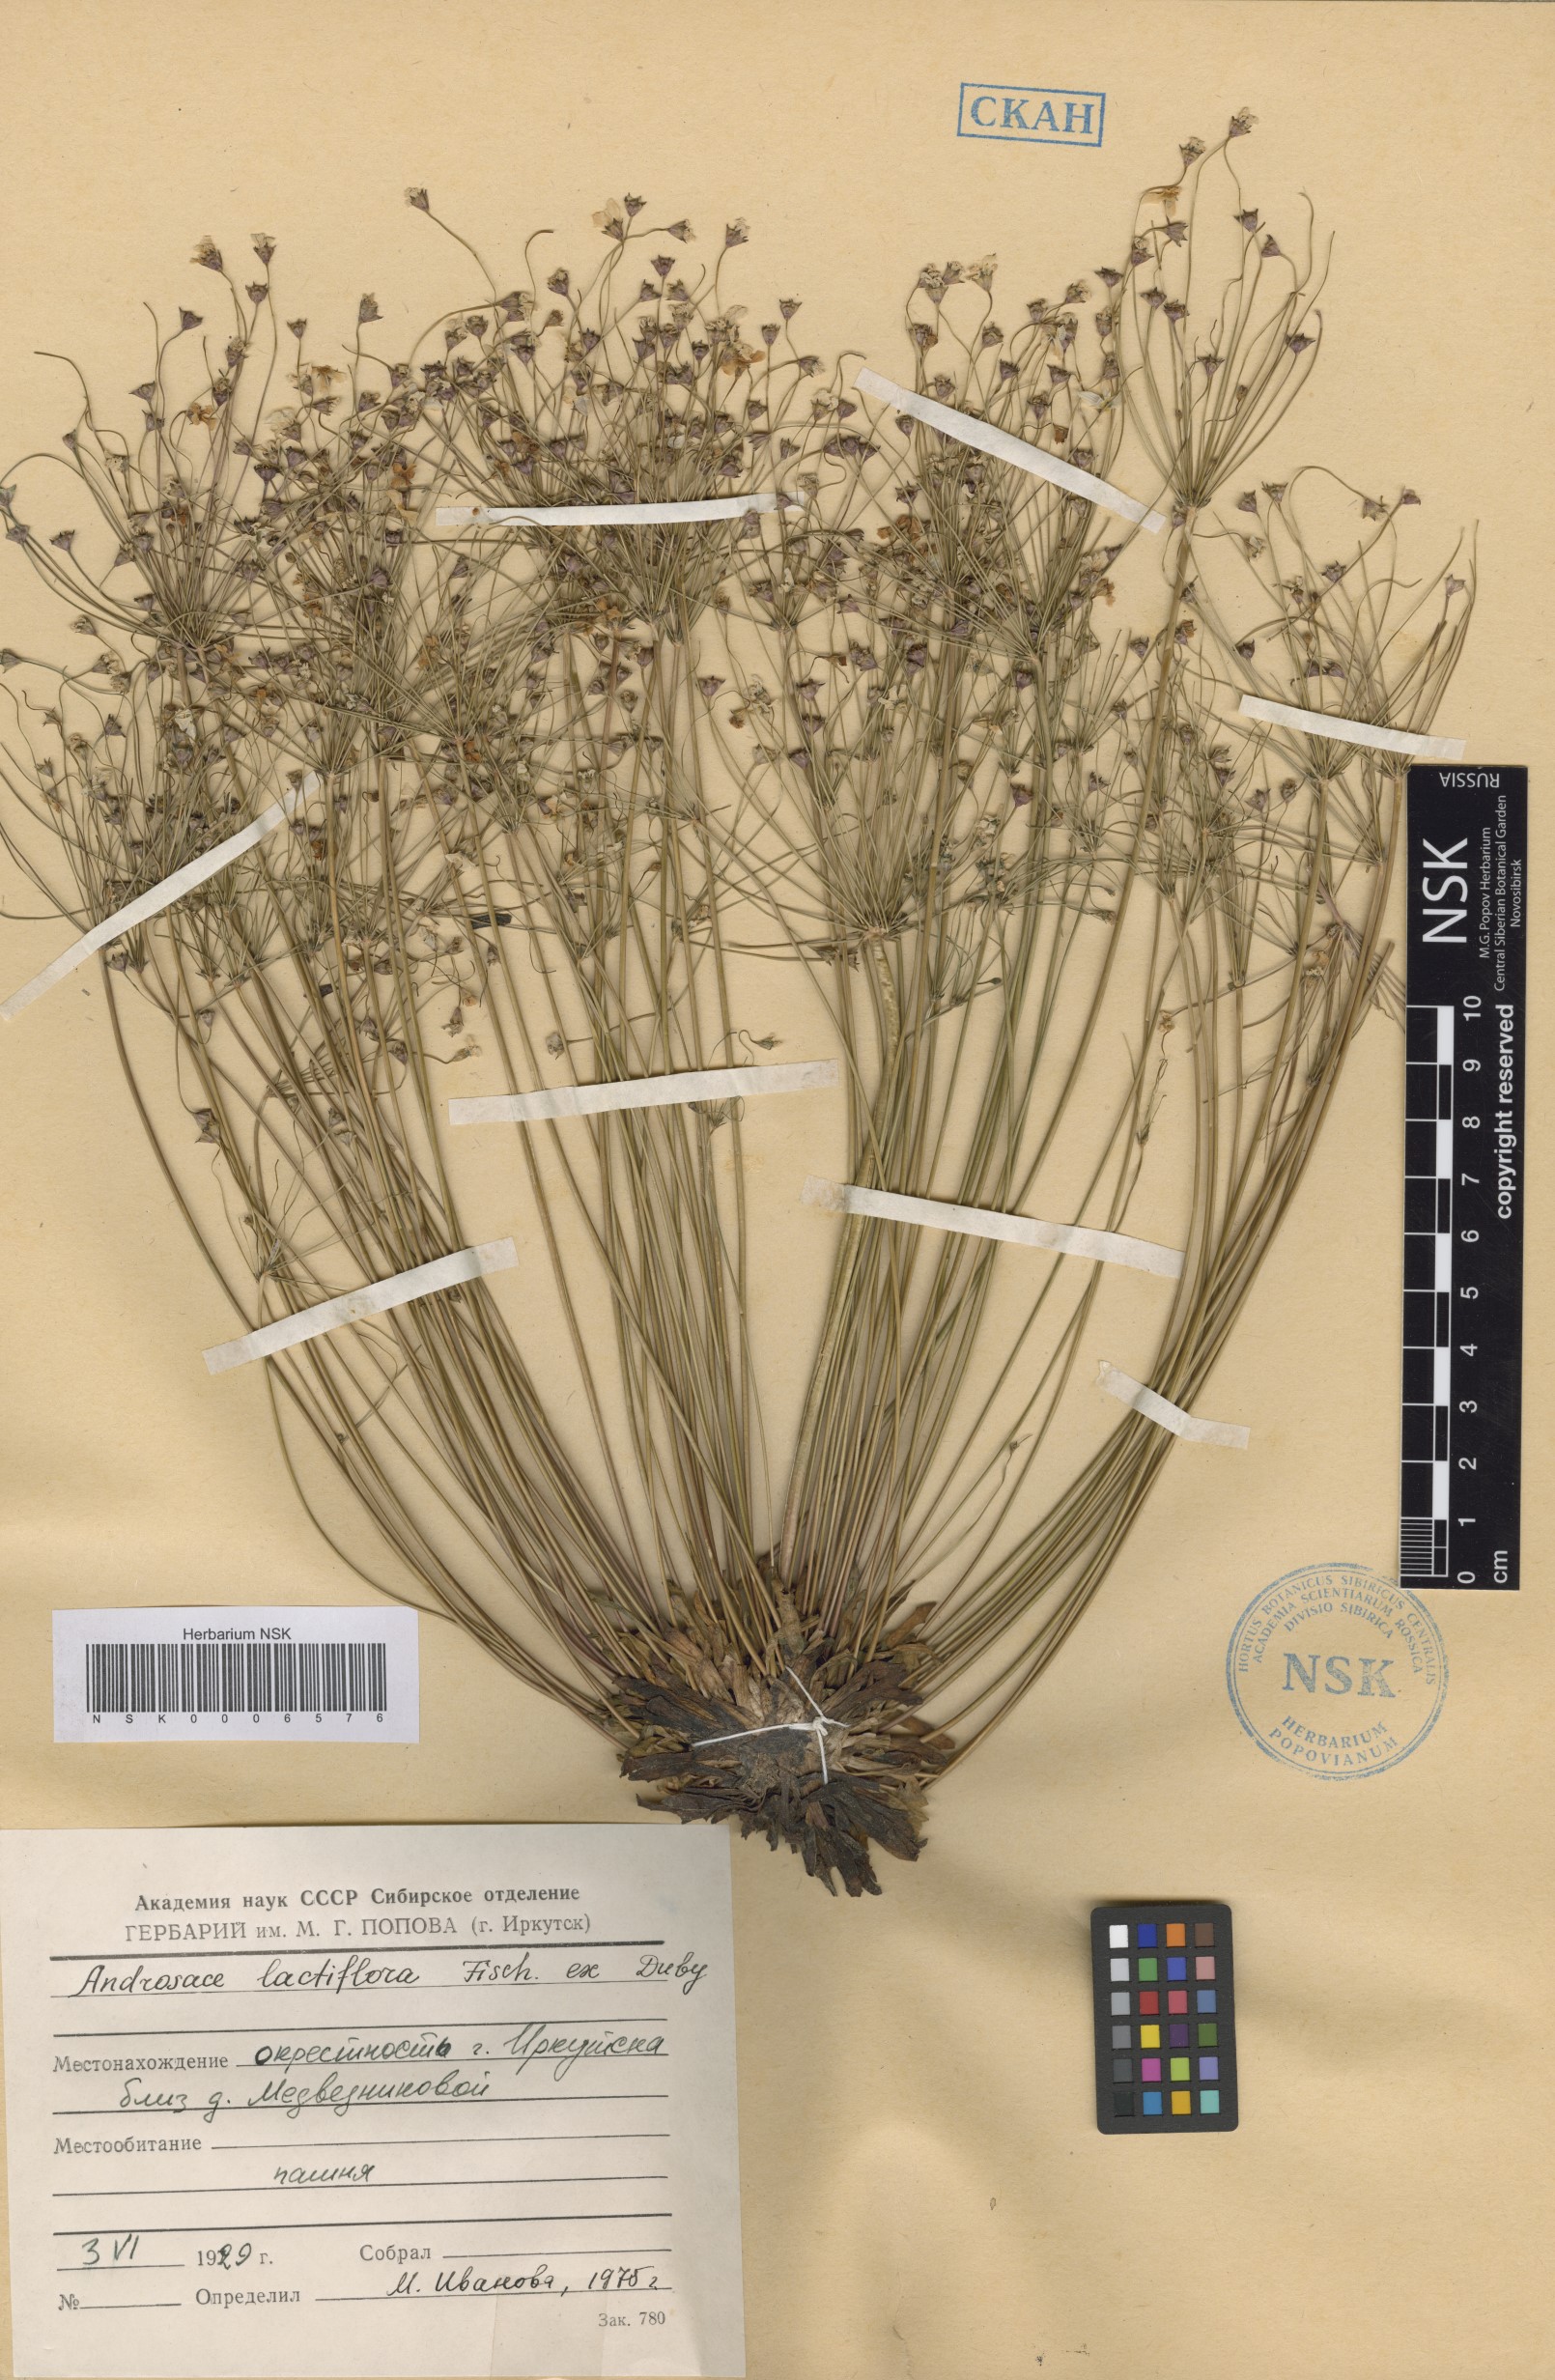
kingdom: Plantae
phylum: Tracheophyta
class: Magnoliopsida
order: Ericales
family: Primulaceae
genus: Androsace
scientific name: Androsace lactiflora
